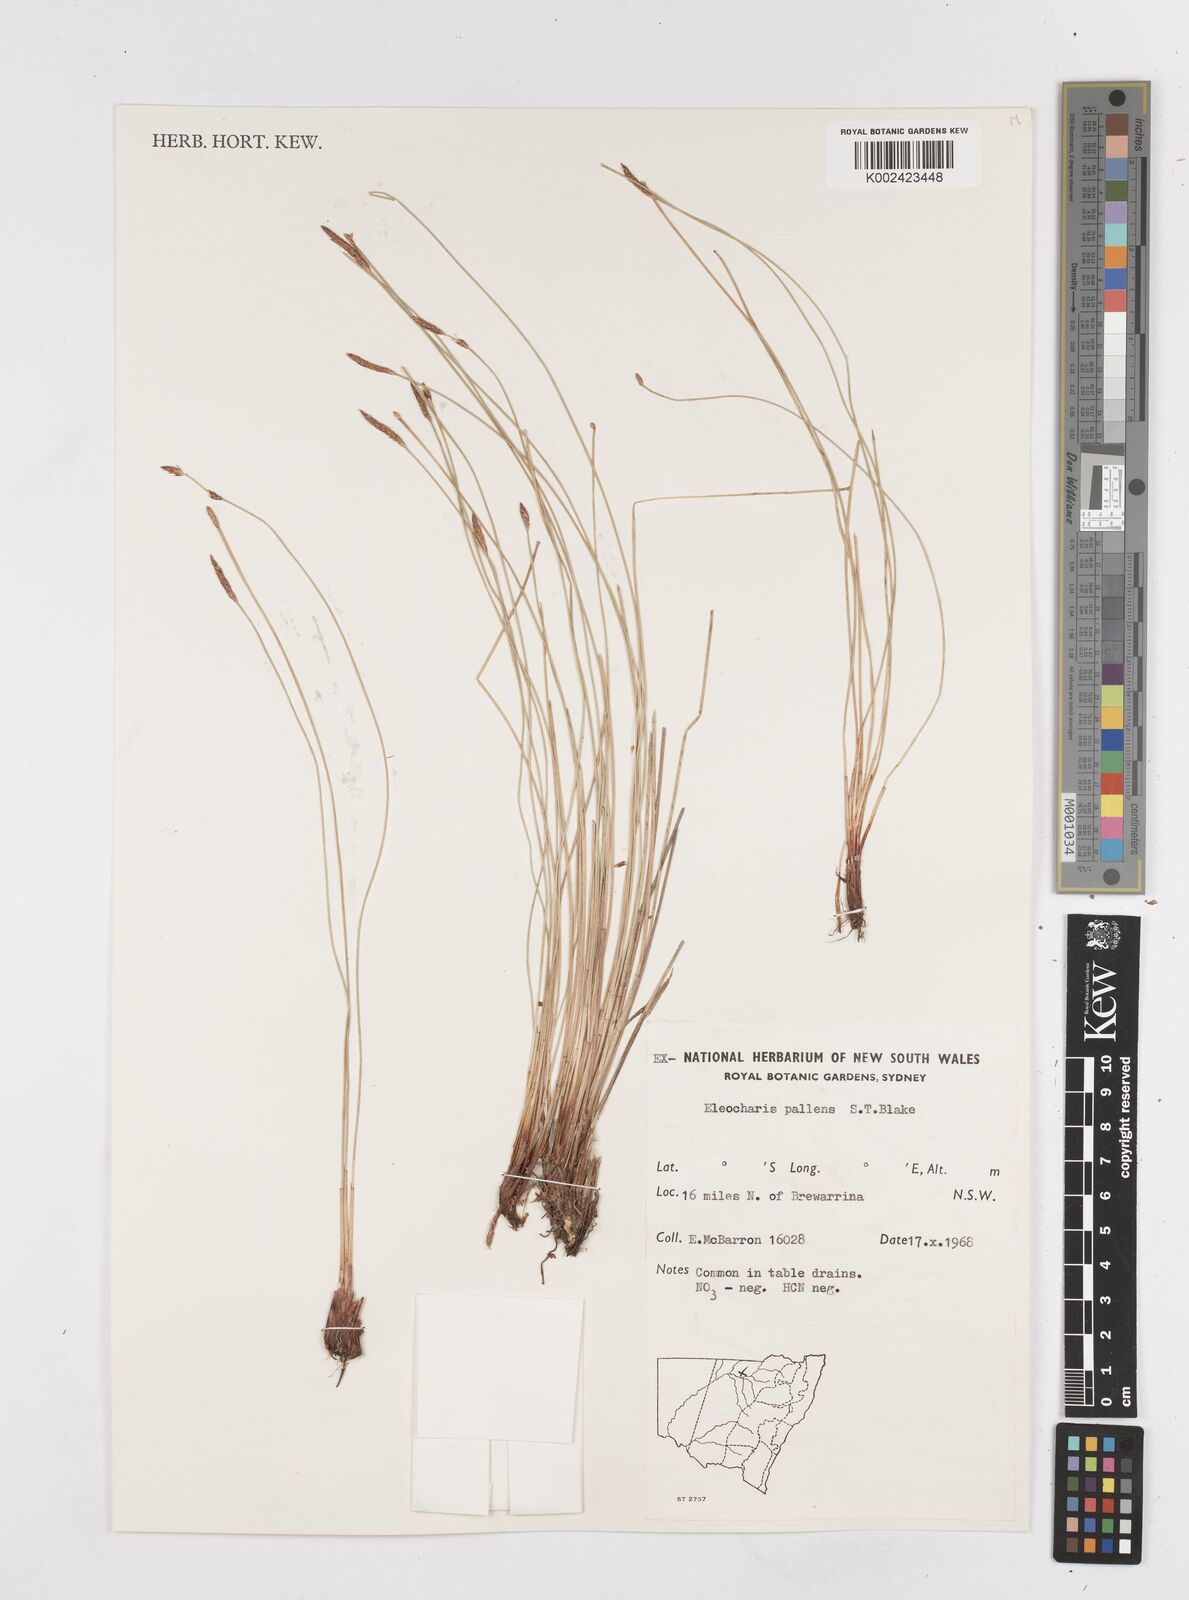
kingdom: Plantae
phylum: Tracheophyta
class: Liliopsida
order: Poales
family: Cyperaceae
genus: Eleocharis
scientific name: Eleocharis acuta
